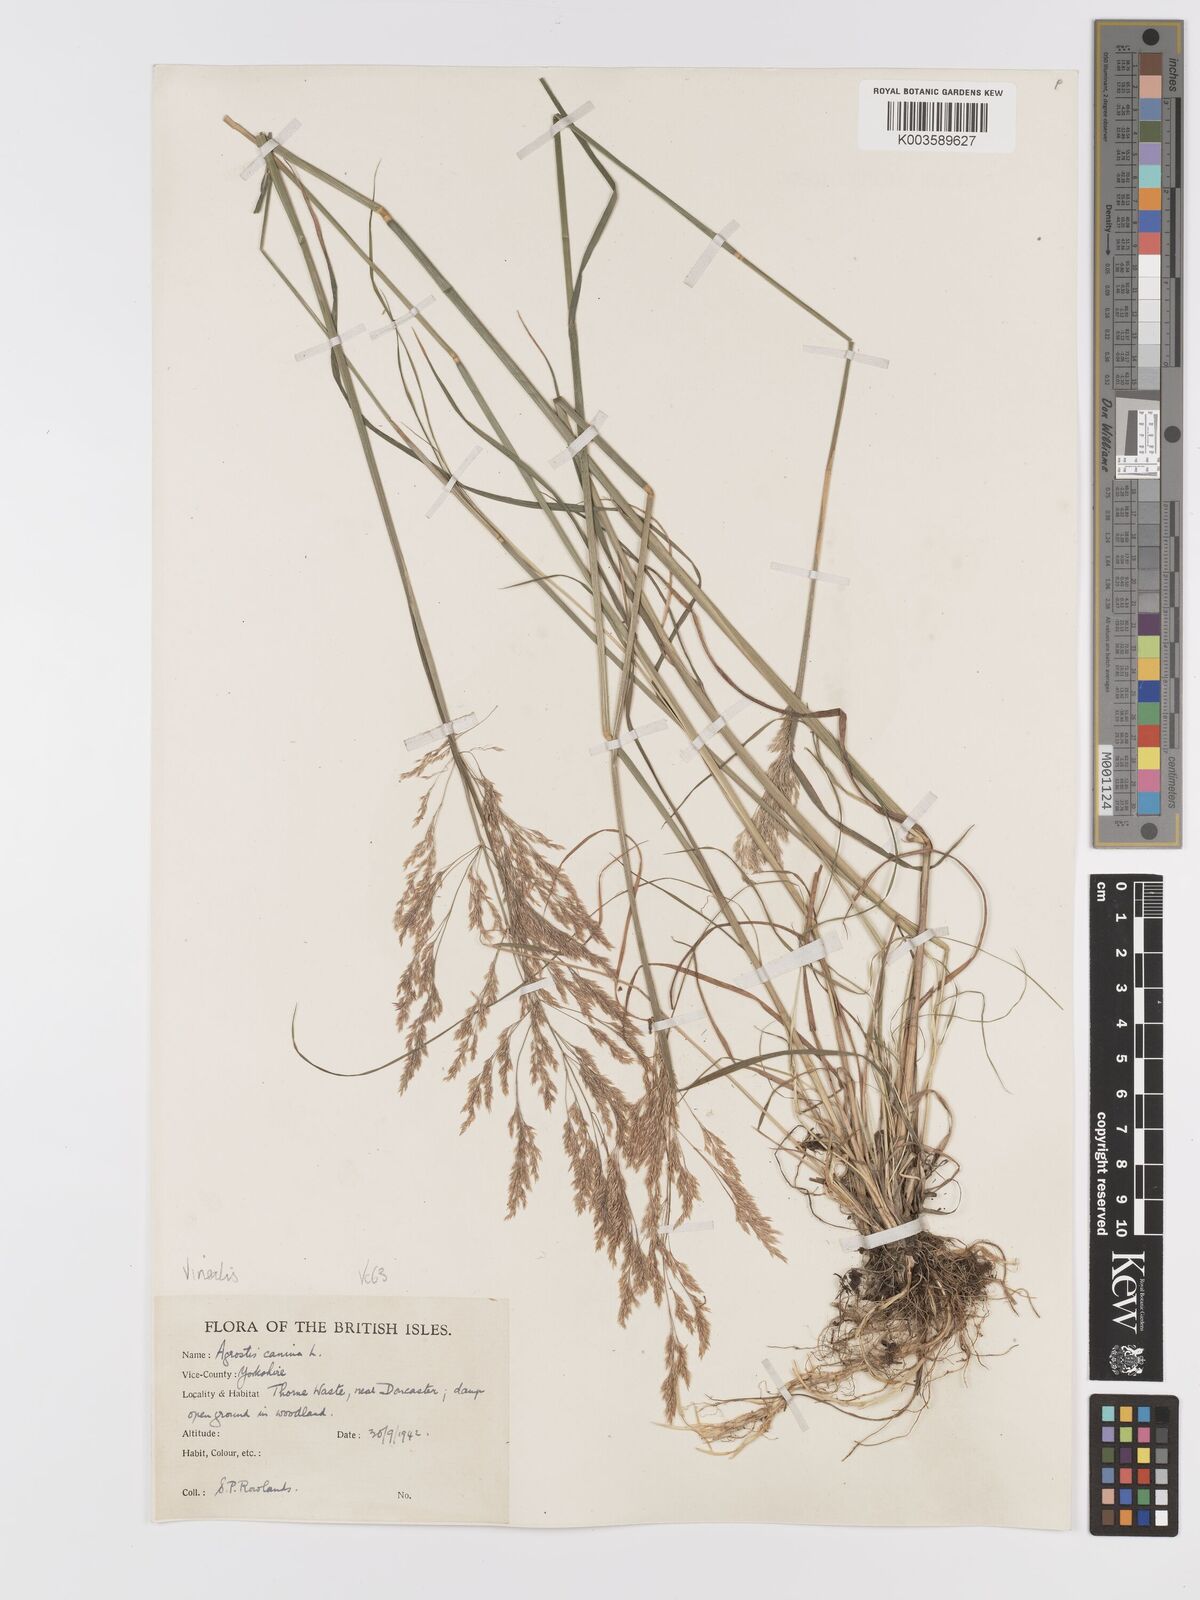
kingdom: Plantae
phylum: Tracheophyta
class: Liliopsida
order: Poales
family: Poaceae
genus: Agrostis
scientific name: Agrostis
